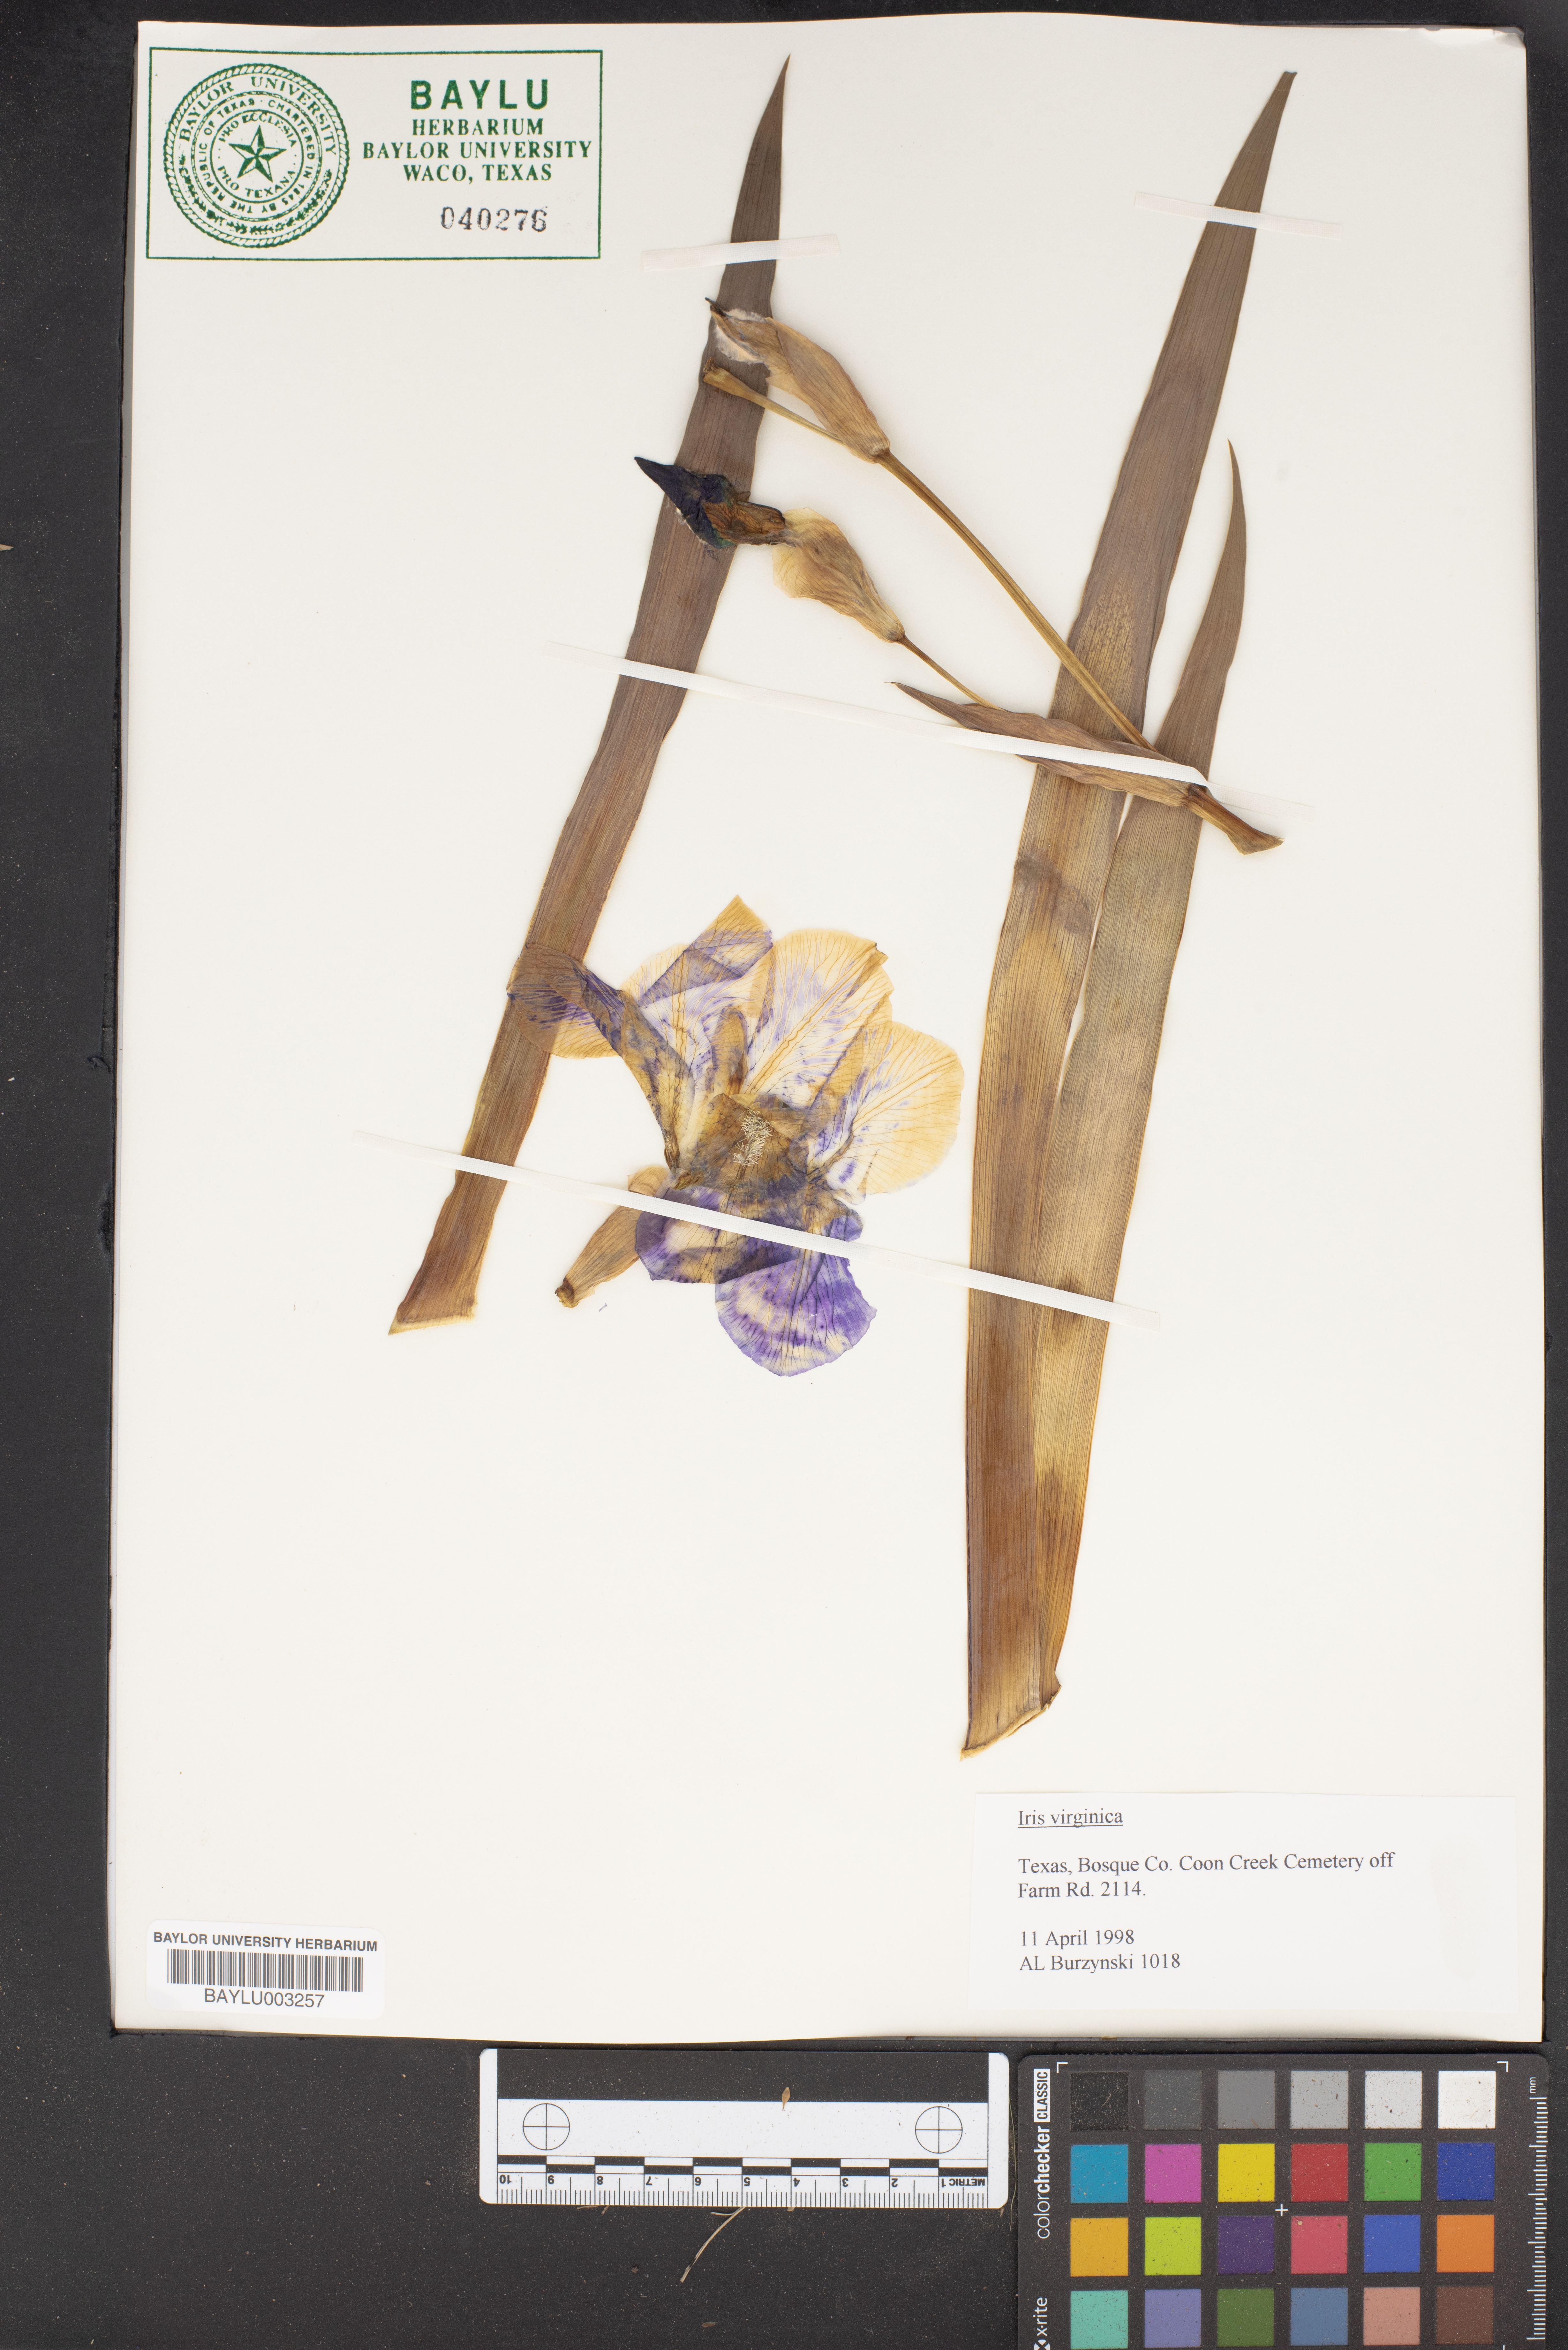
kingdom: Plantae
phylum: Tracheophyta
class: Liliopsida
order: Asparagales
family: Iridaceae
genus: Iris
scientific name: Iris virginica
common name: Southern blue flag
